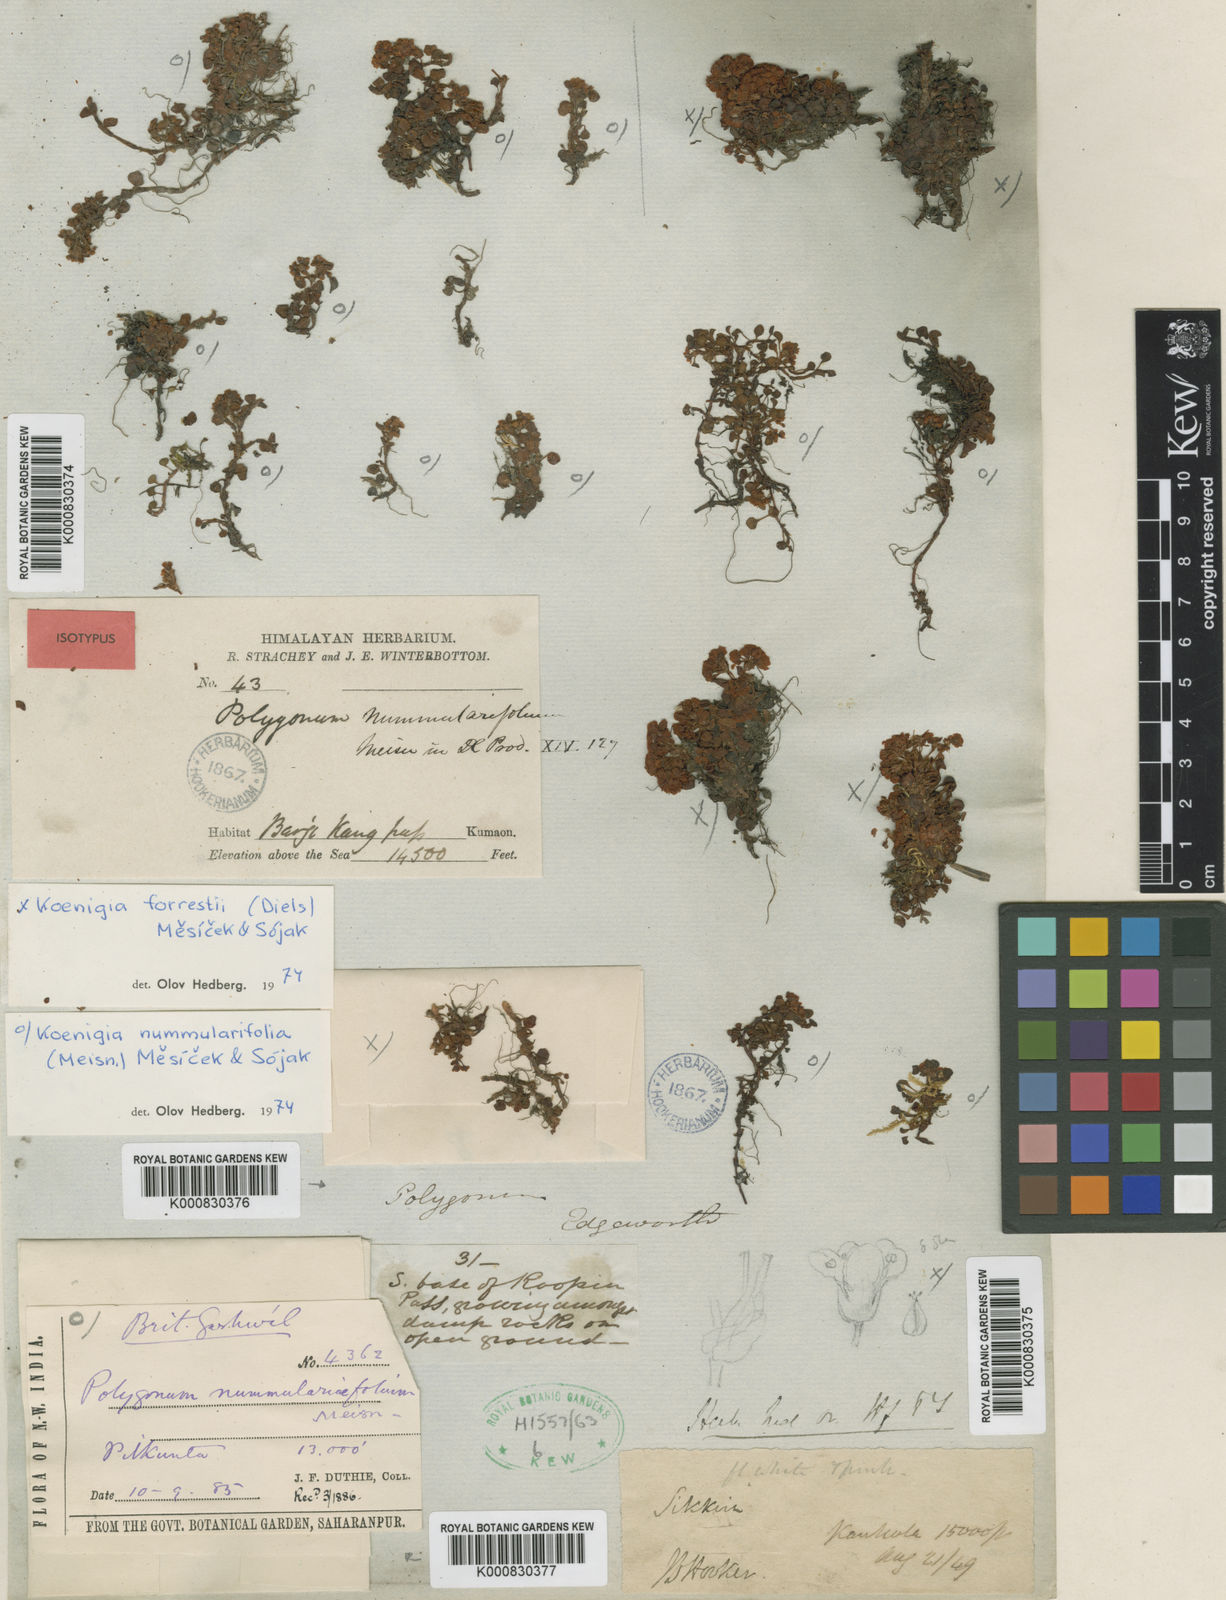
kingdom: Plantae
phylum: Tracheophyta
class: Magnoliopsida
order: Caryophyllales
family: Polygonaceae
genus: Koenigia
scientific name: Koenigia
